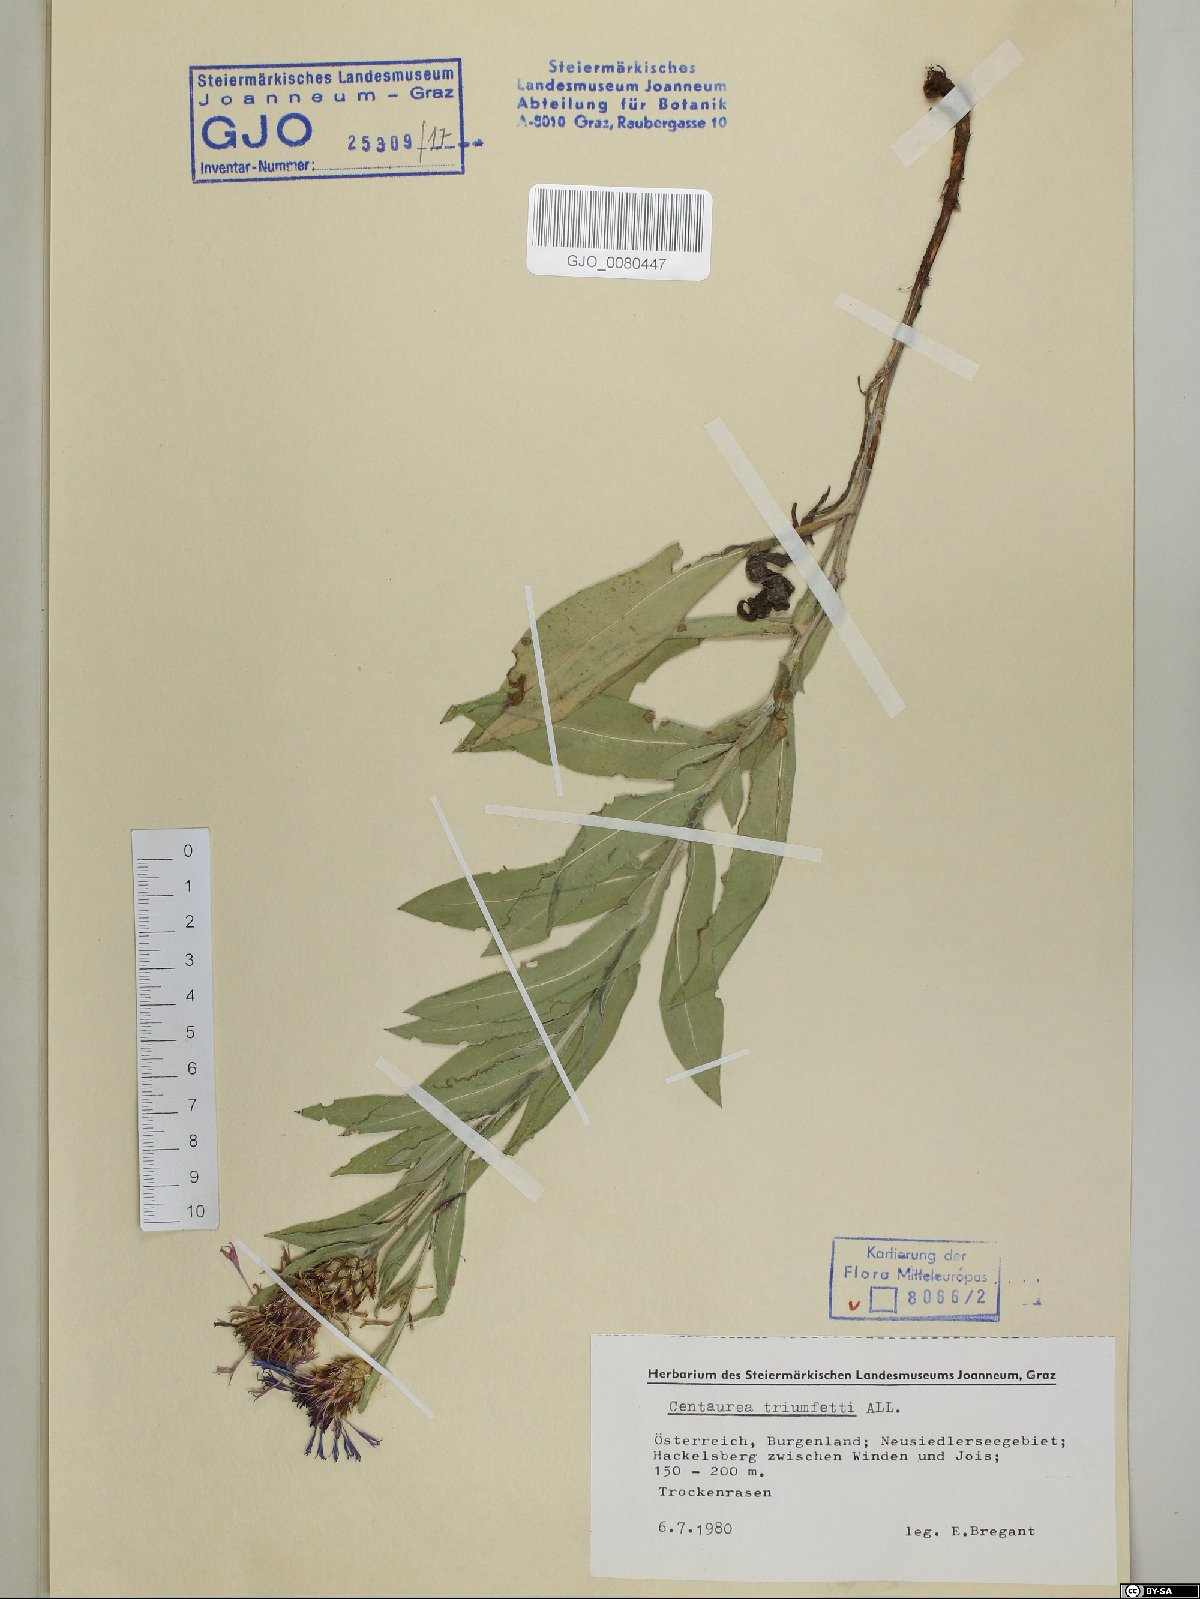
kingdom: Plantae
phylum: Tracheophyta
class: Magnoliopsida
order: Asterales
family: Asteraceae
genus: Centaurea
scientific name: Centaurea triumfettii
